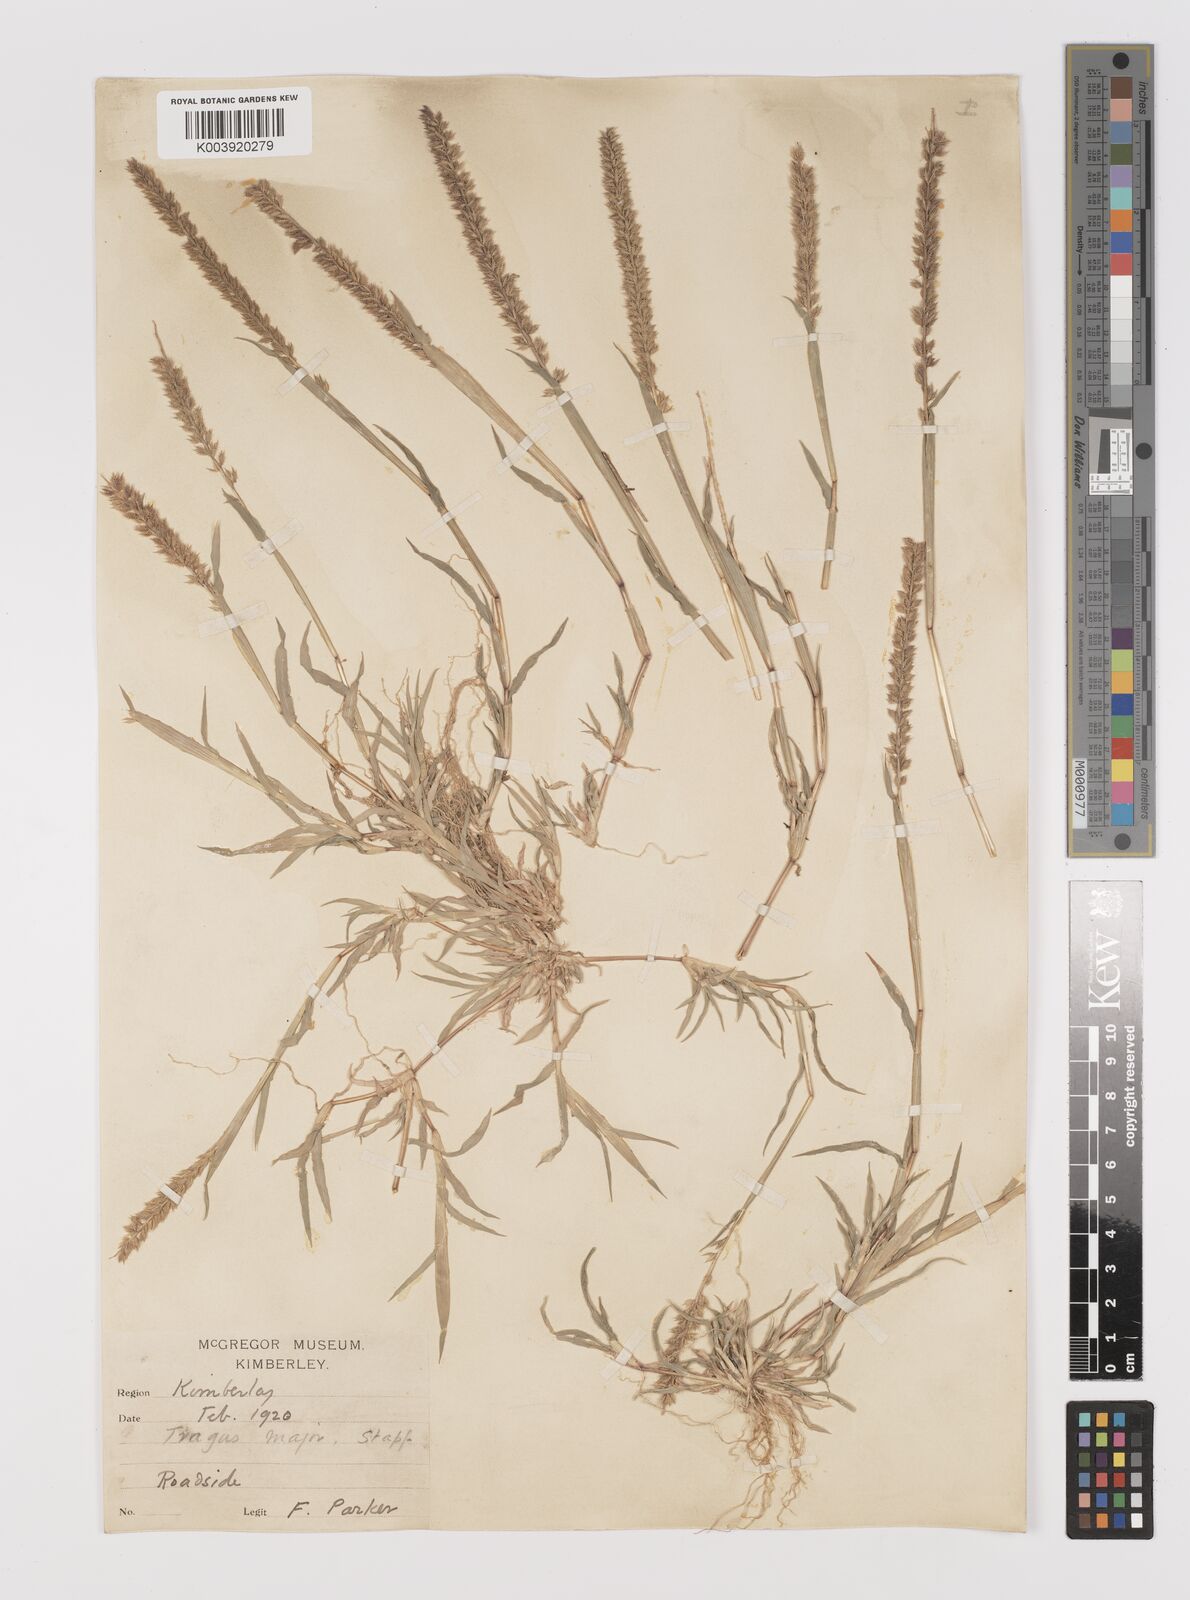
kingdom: Plantae
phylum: Tracheophyta
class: Liliopsida
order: Poales
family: Poaceae
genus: Tragus
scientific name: Tragus racemosus
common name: European bur-grass
